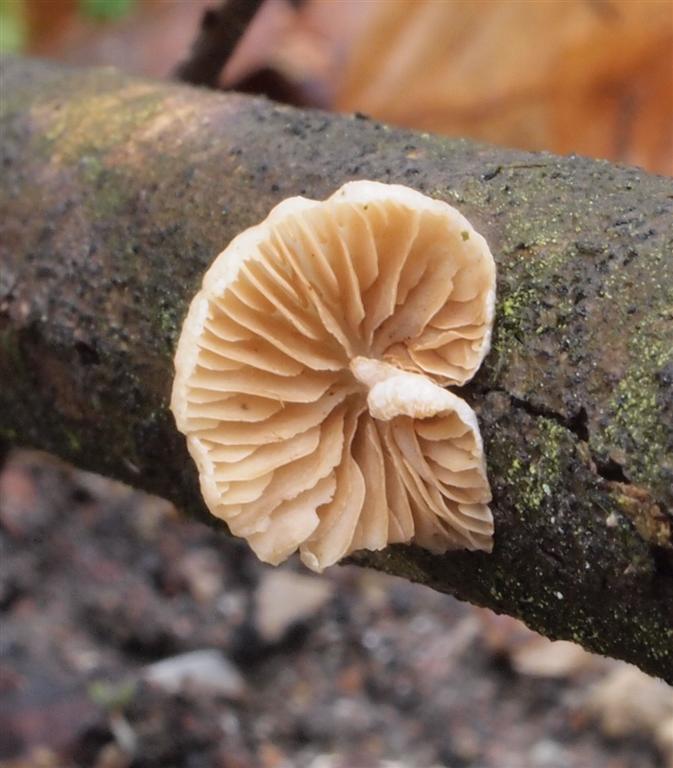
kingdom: Fungi
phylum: Basidiomycota
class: Agaricomycetes
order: Agaricales
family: Crepidotaceae
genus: Crepidotus
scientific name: Crepidotus cesatii
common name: almindelig muslingesvamp
